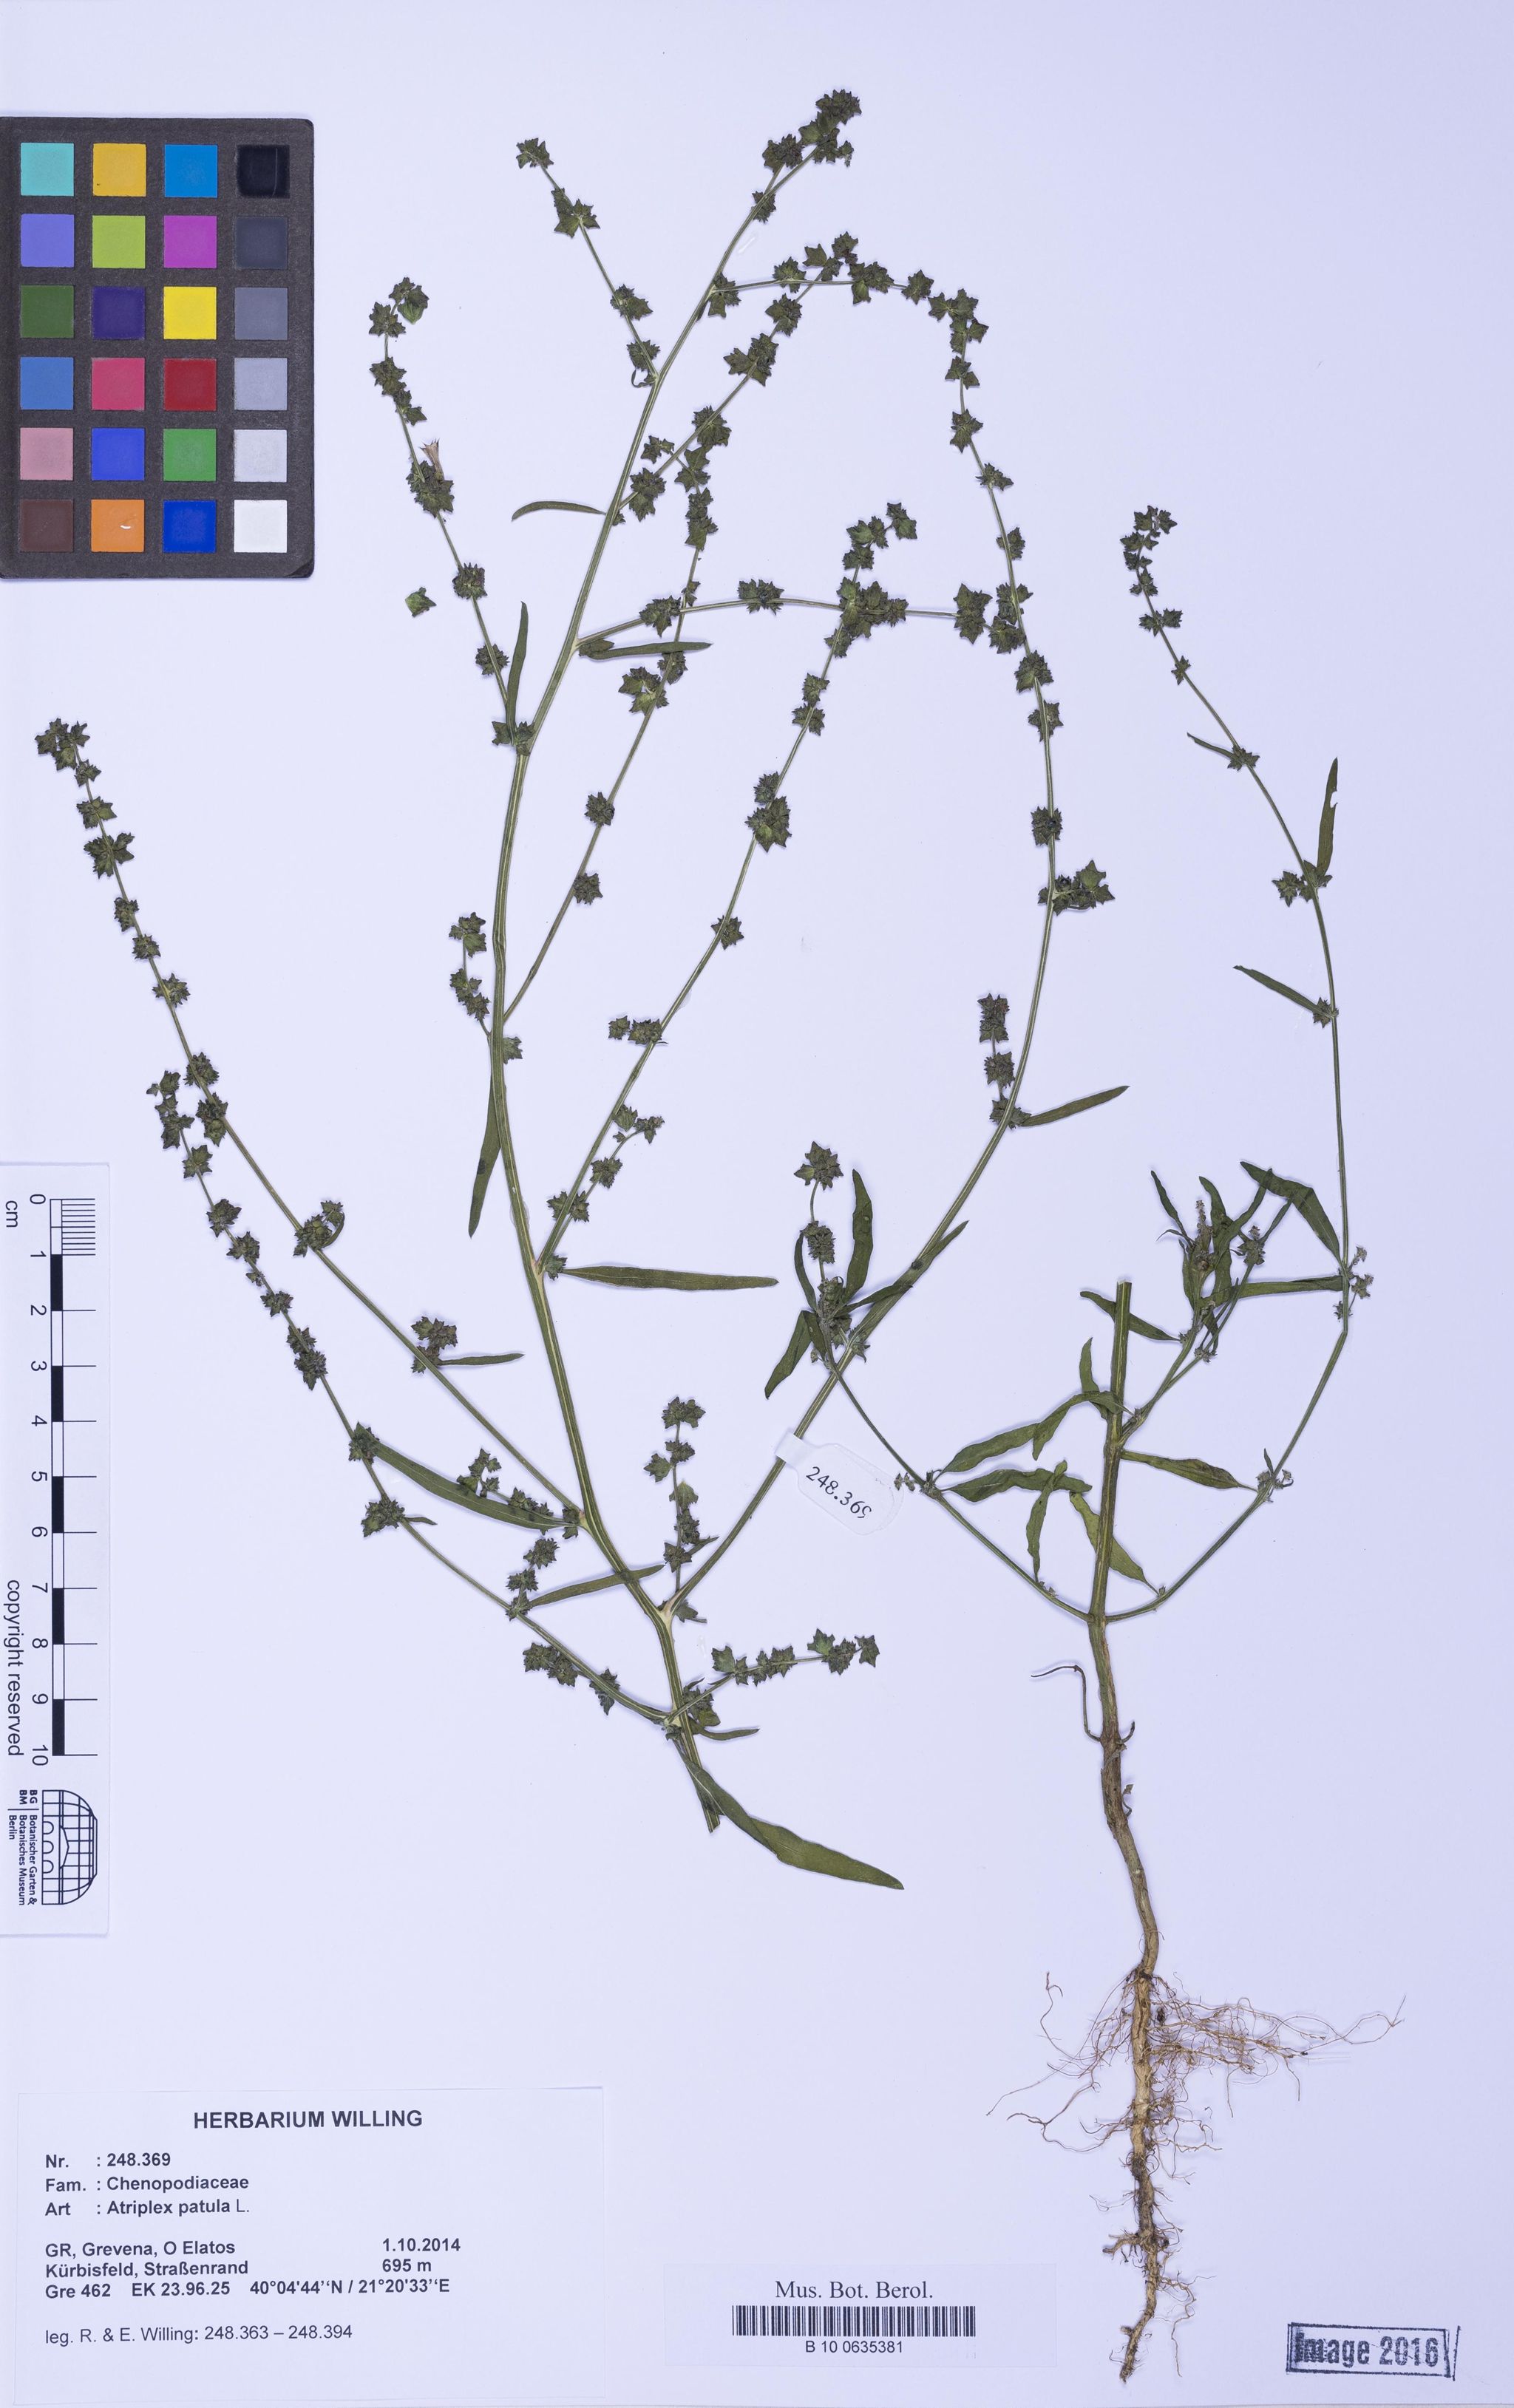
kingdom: Plantae
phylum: Tracheophyta
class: Magnoliopsida
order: Caryophyllales
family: Amaranthaceae
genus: Atriplex
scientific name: Atriplex patula
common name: Common orache
